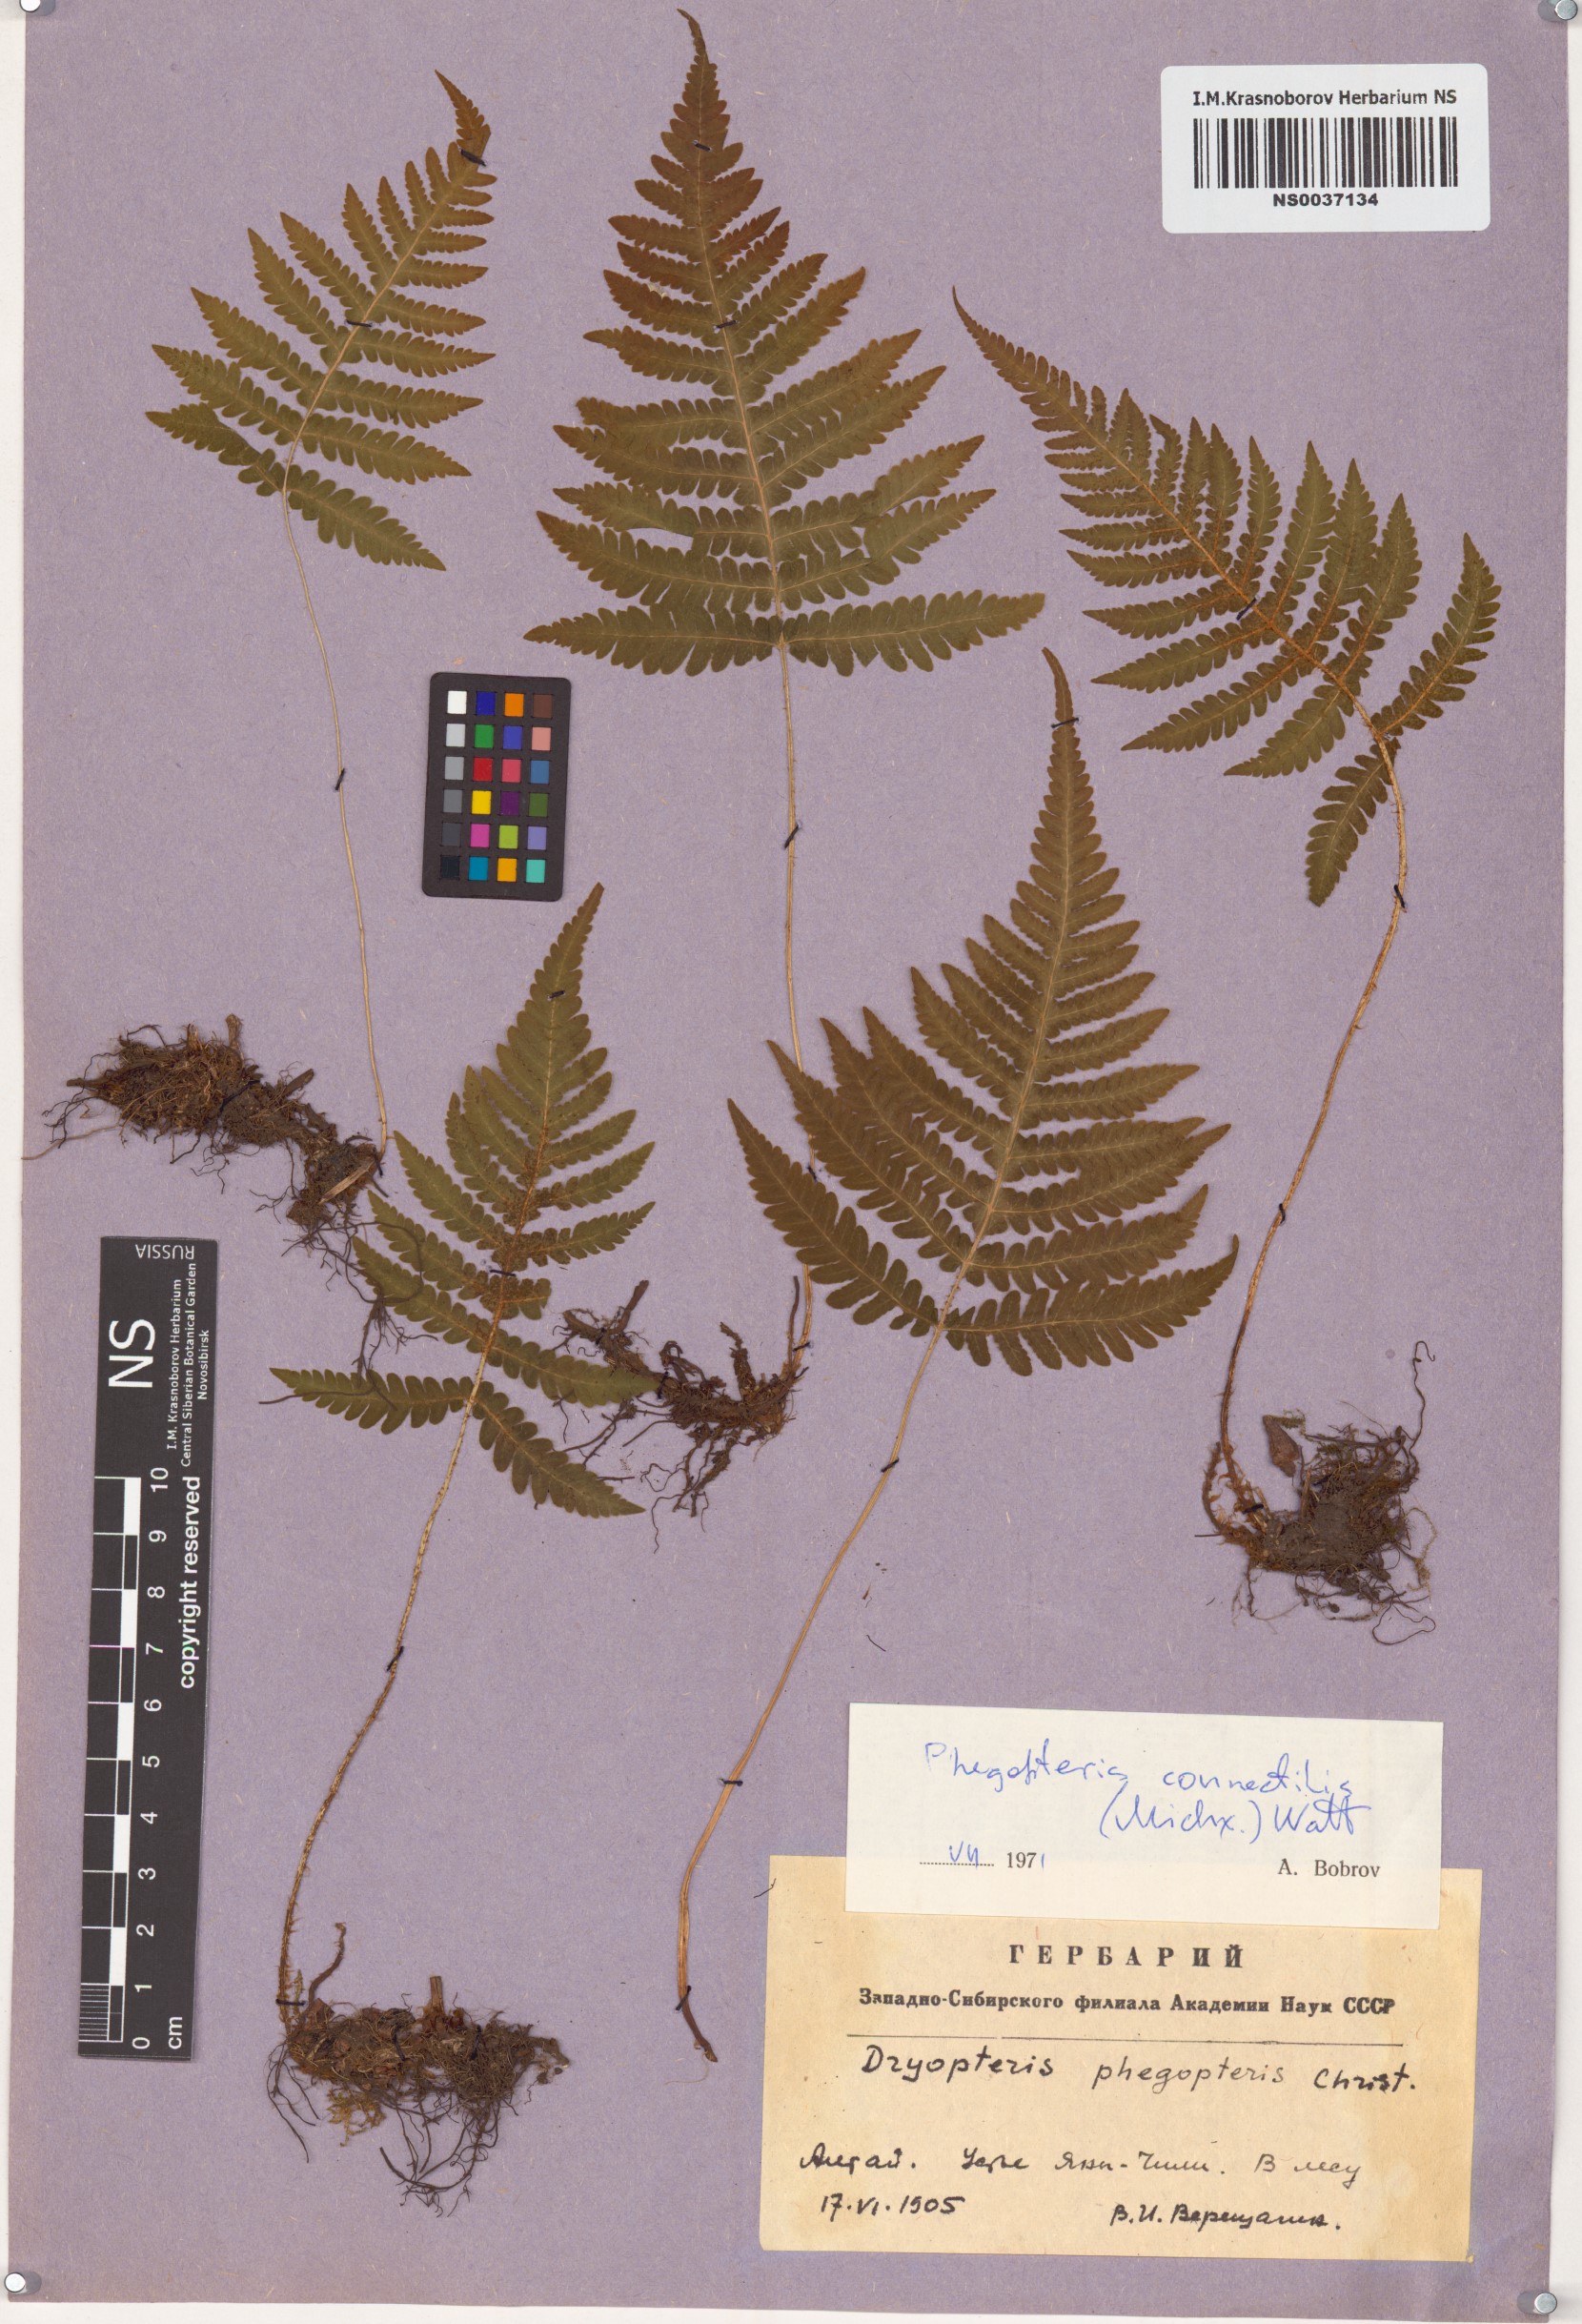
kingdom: Plantae
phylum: Tracheophyta
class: Polypodiopsida
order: Polypodiales
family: Thelypteridaceae
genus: Phegopteris
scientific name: Phegopteris connectilis
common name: Beech fern
